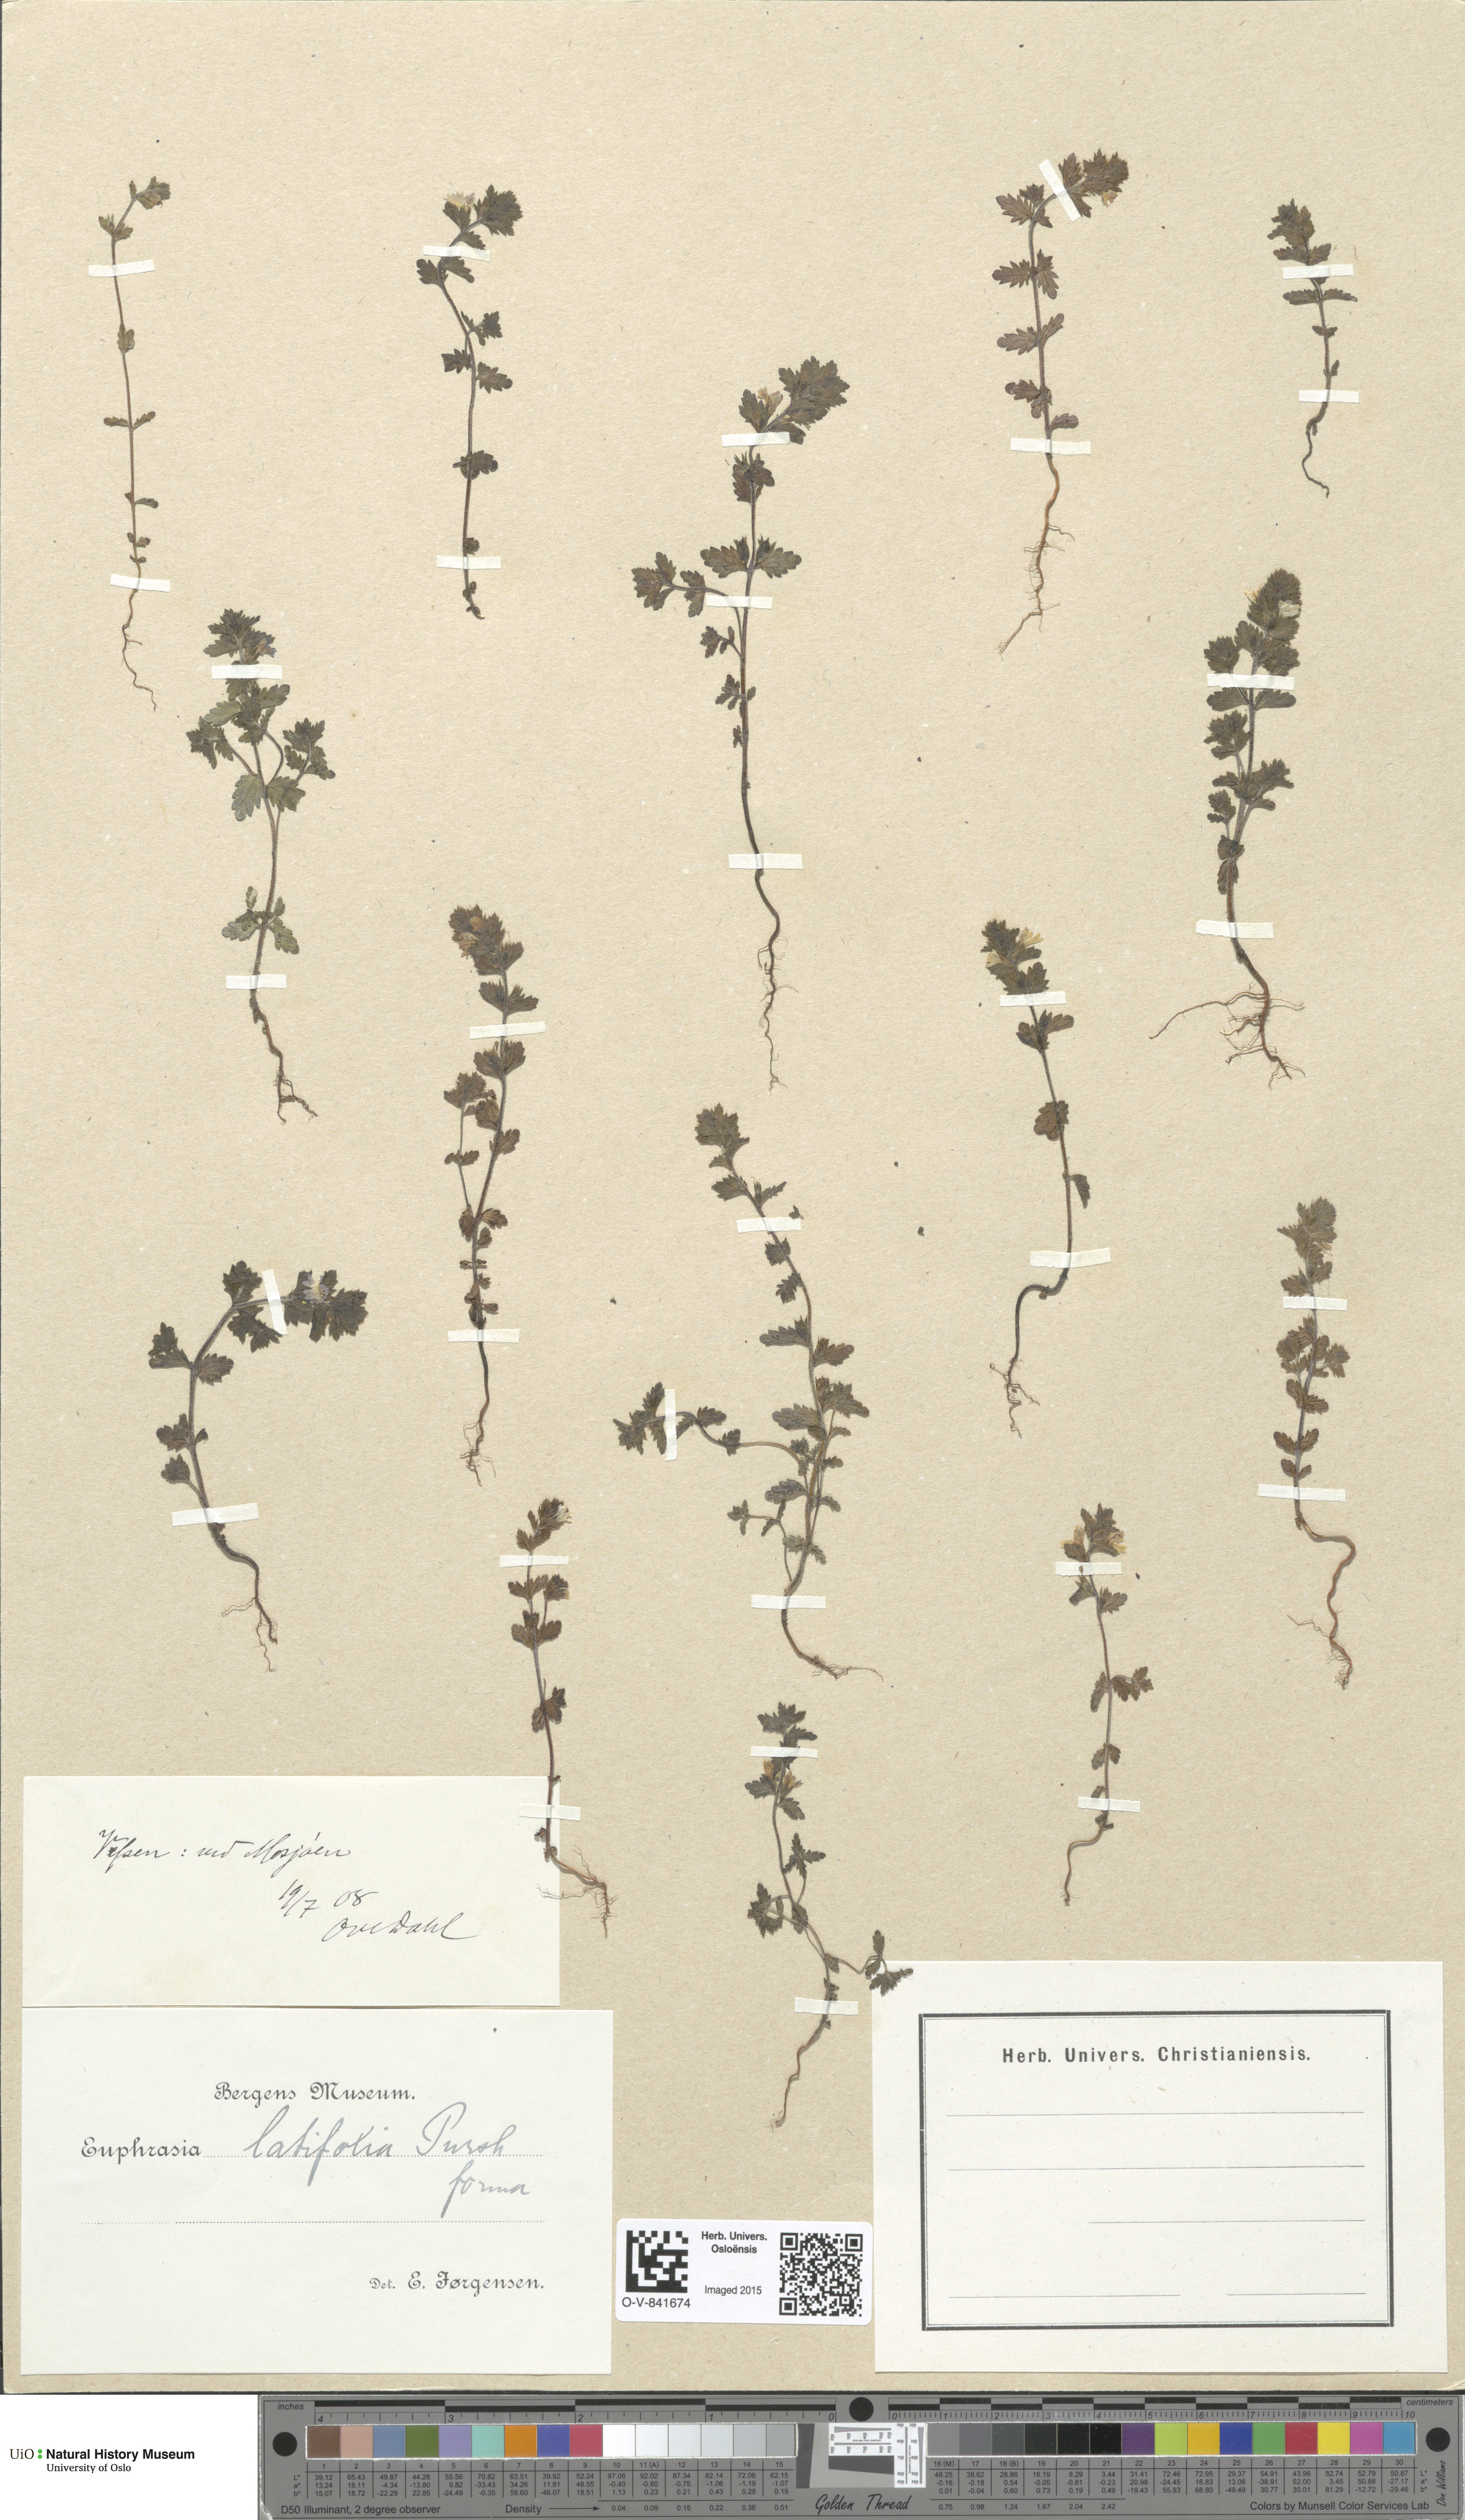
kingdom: Plantae
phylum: Tracheophyta
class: Magnoliopsida
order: Lamiales
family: Orobanchaceae
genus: Euphrasia
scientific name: Euphrasia wettsteinii
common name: Wettstein's eyebright
